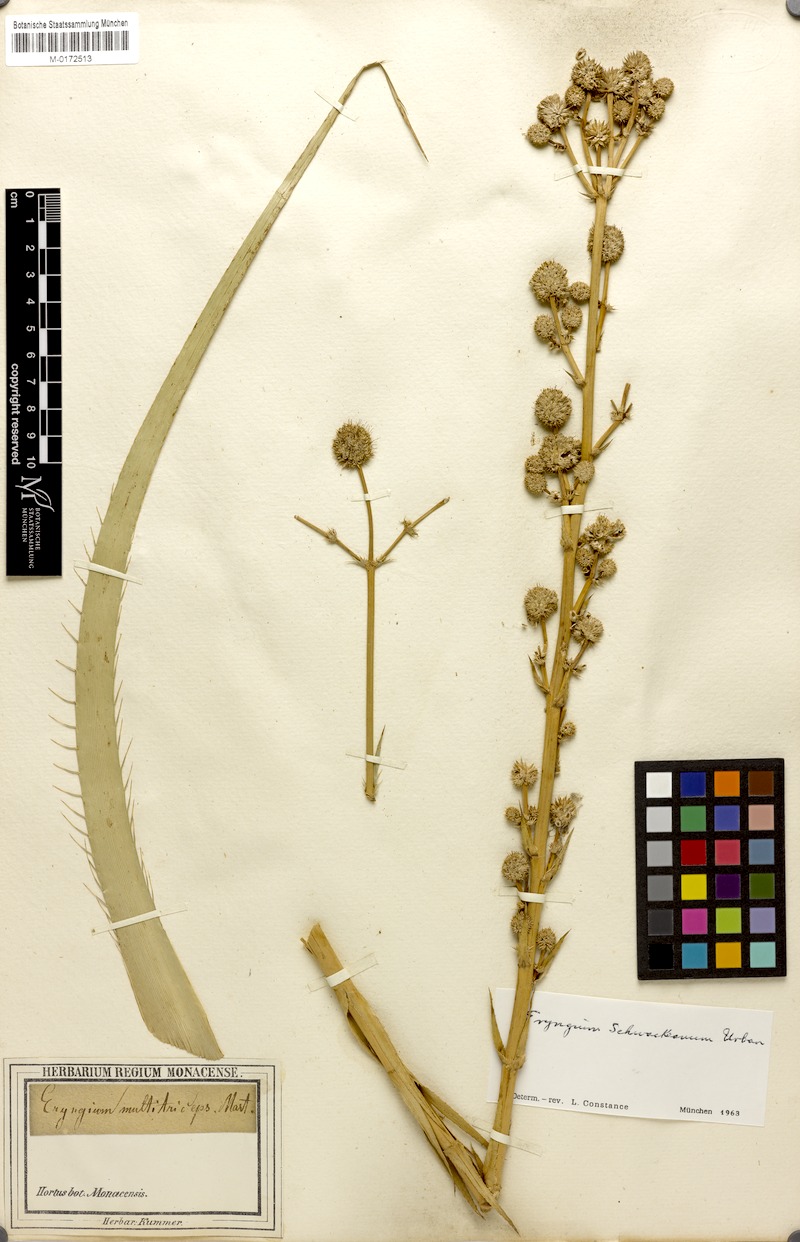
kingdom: Plantae
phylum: Tracheophyta
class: Magnoliopsida
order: Apiales
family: Apiaceae
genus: Eryngium
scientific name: Eryngium horridum
